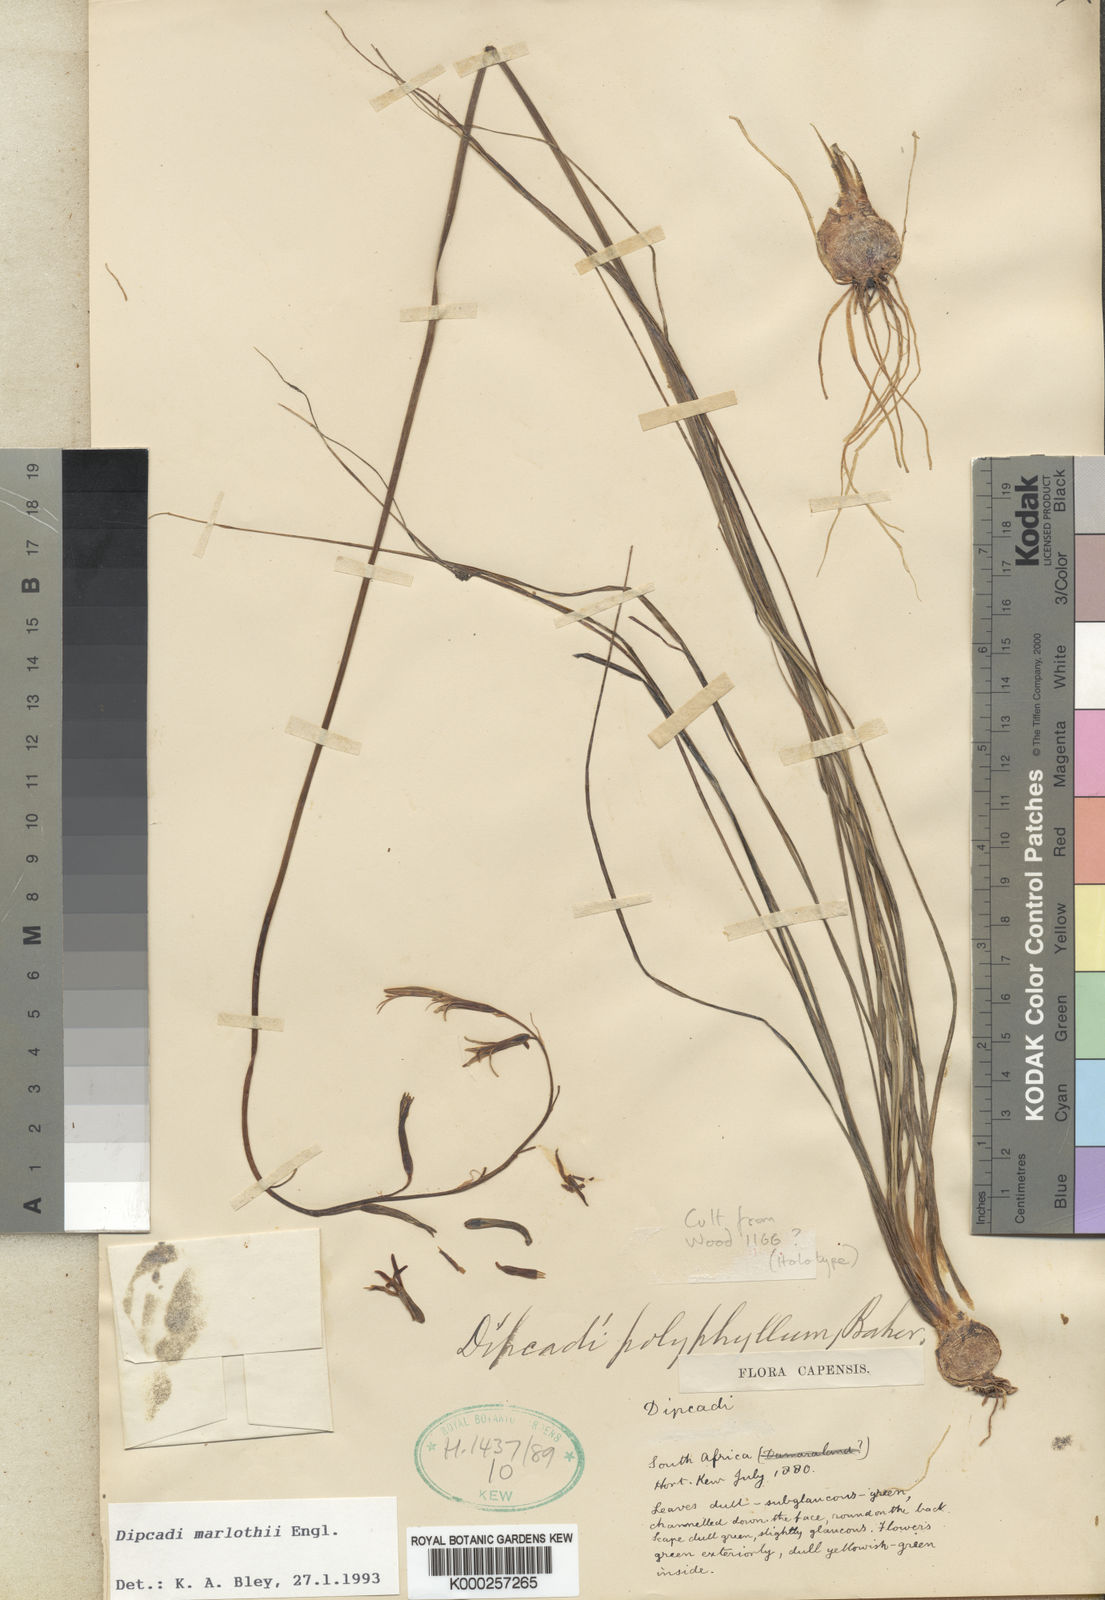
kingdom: Plantae
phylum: Tracheophyta
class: Liliopsida
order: Asparagales
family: Asparagaceae
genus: Dipcadi
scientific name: Dipcadi marlothii
